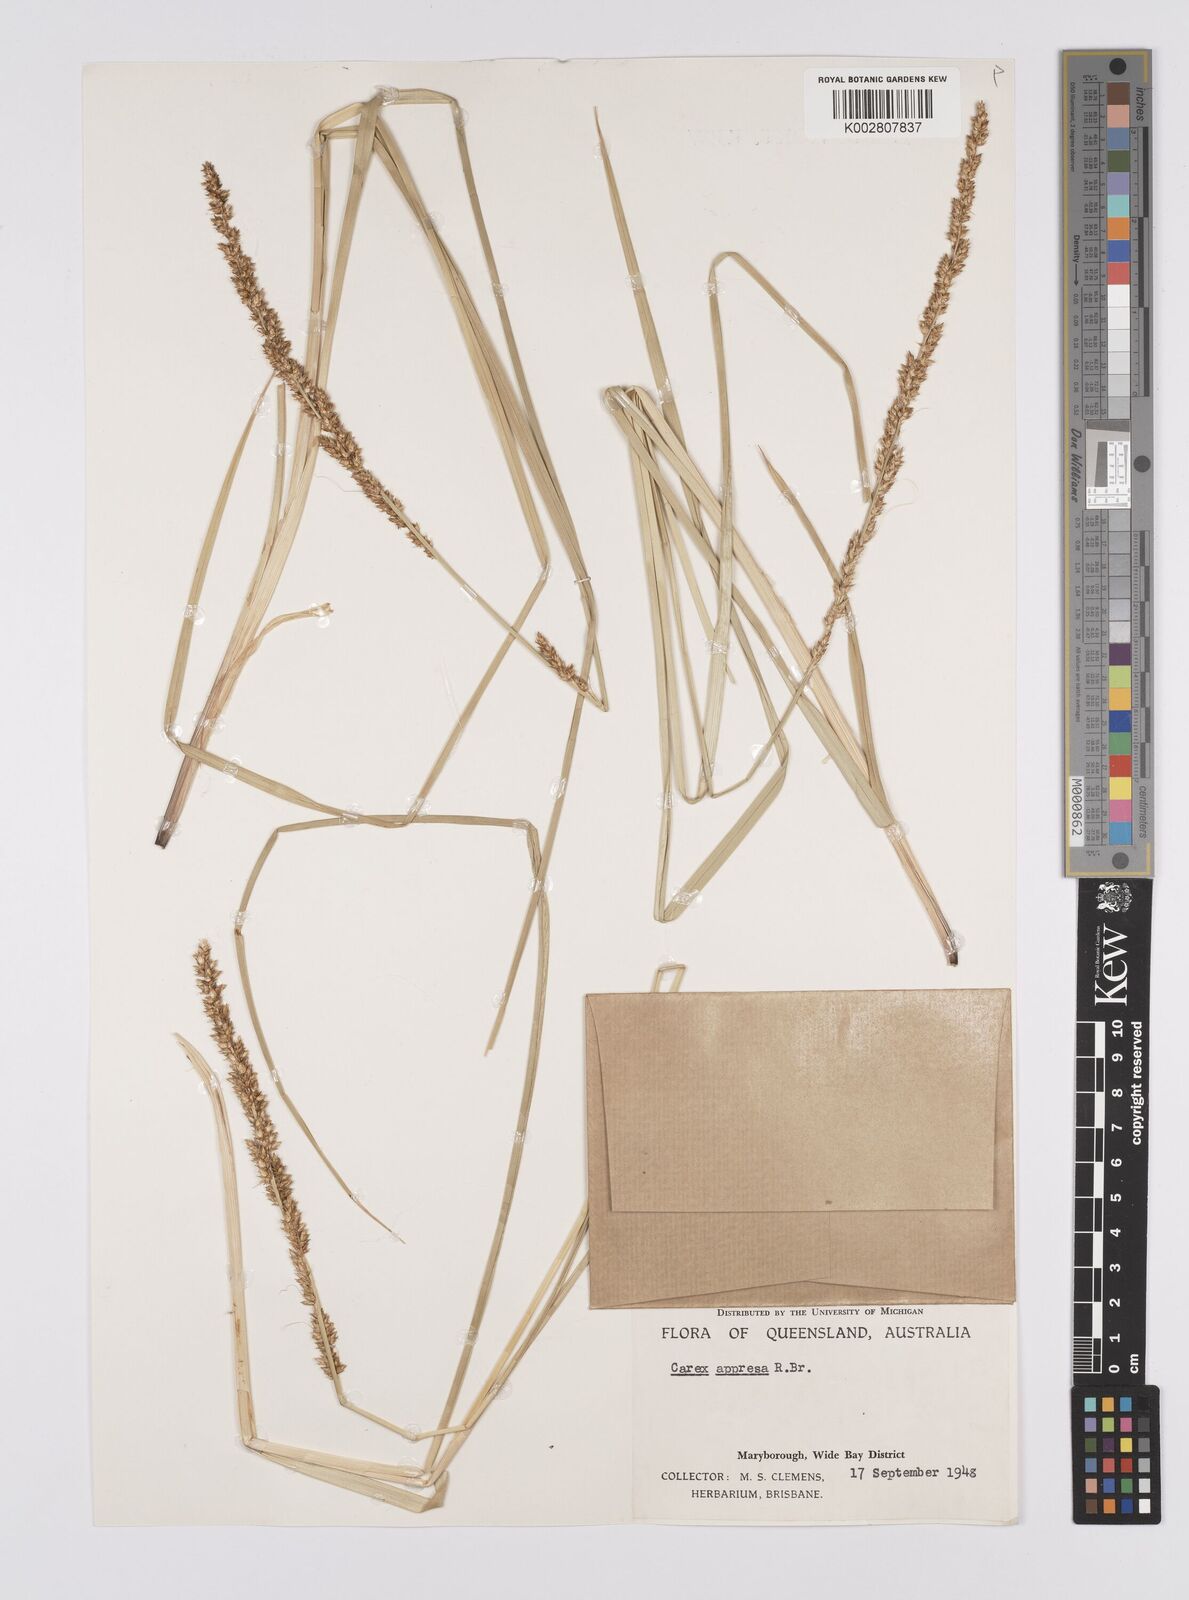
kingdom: Plantae
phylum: Tracheophyta
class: Liliopsida
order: Poales
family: Cyperaceae
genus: Carex
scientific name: Carex appressa
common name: Tussock sedge
